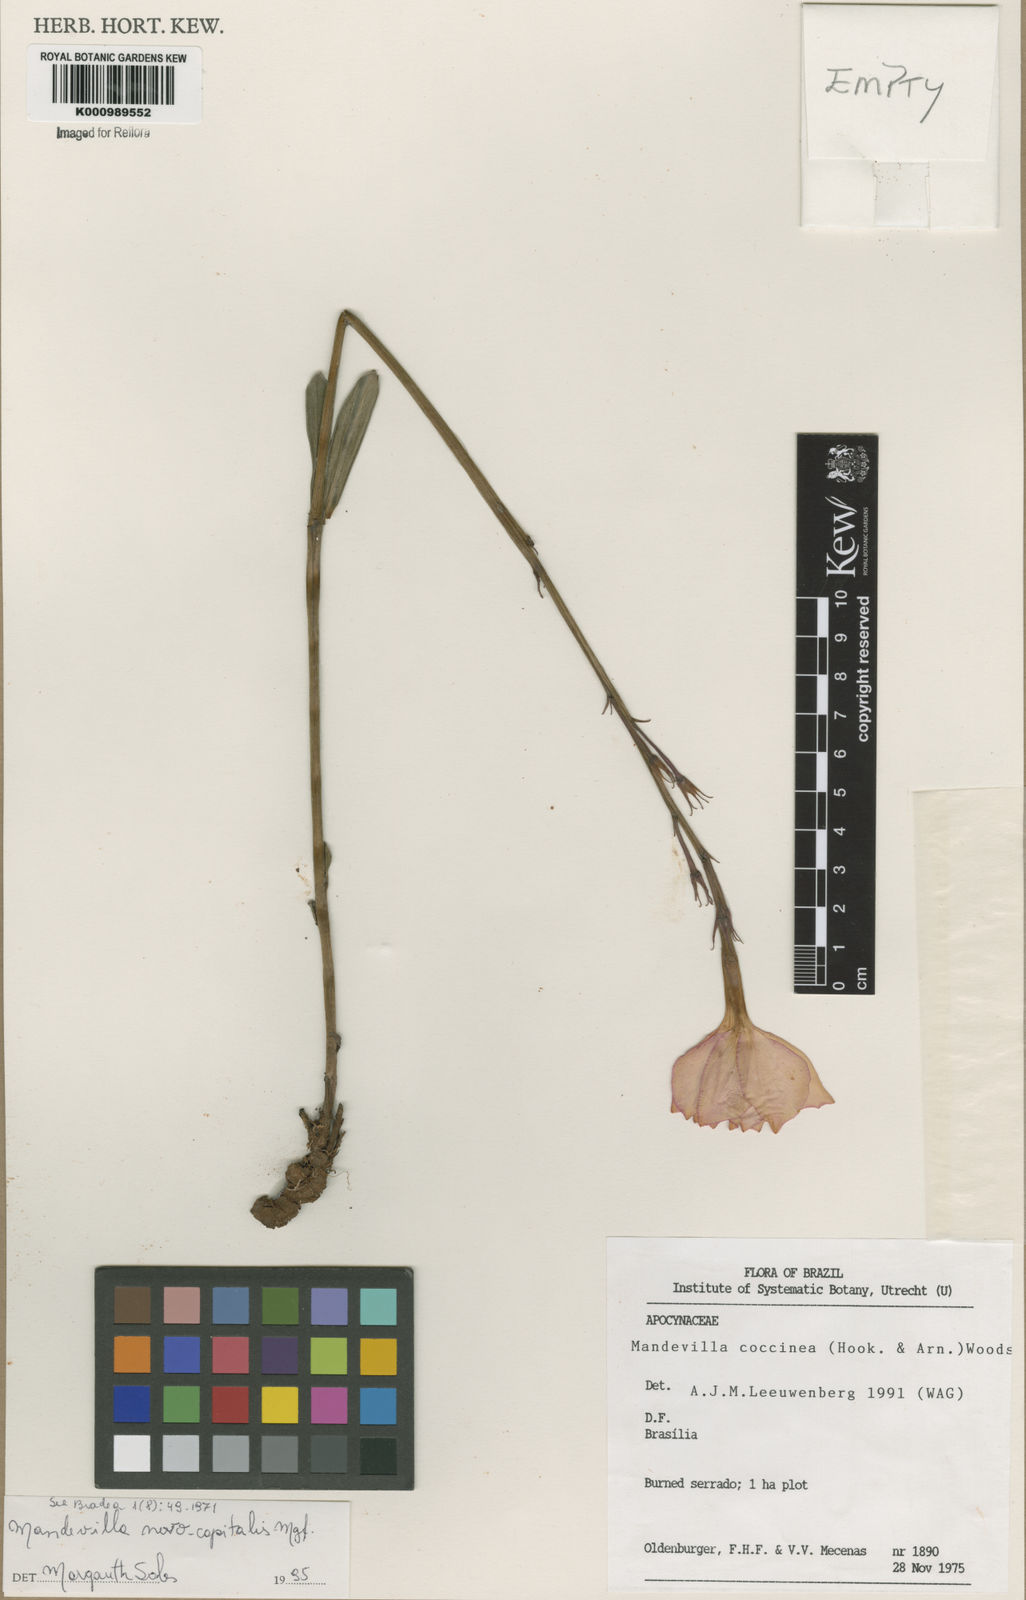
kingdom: Plantae
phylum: Tracheophyta
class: Magnoliopsida
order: Gentianales
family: Apocynaceae
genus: Mandevilla
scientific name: Mandevilla novocapitalis
